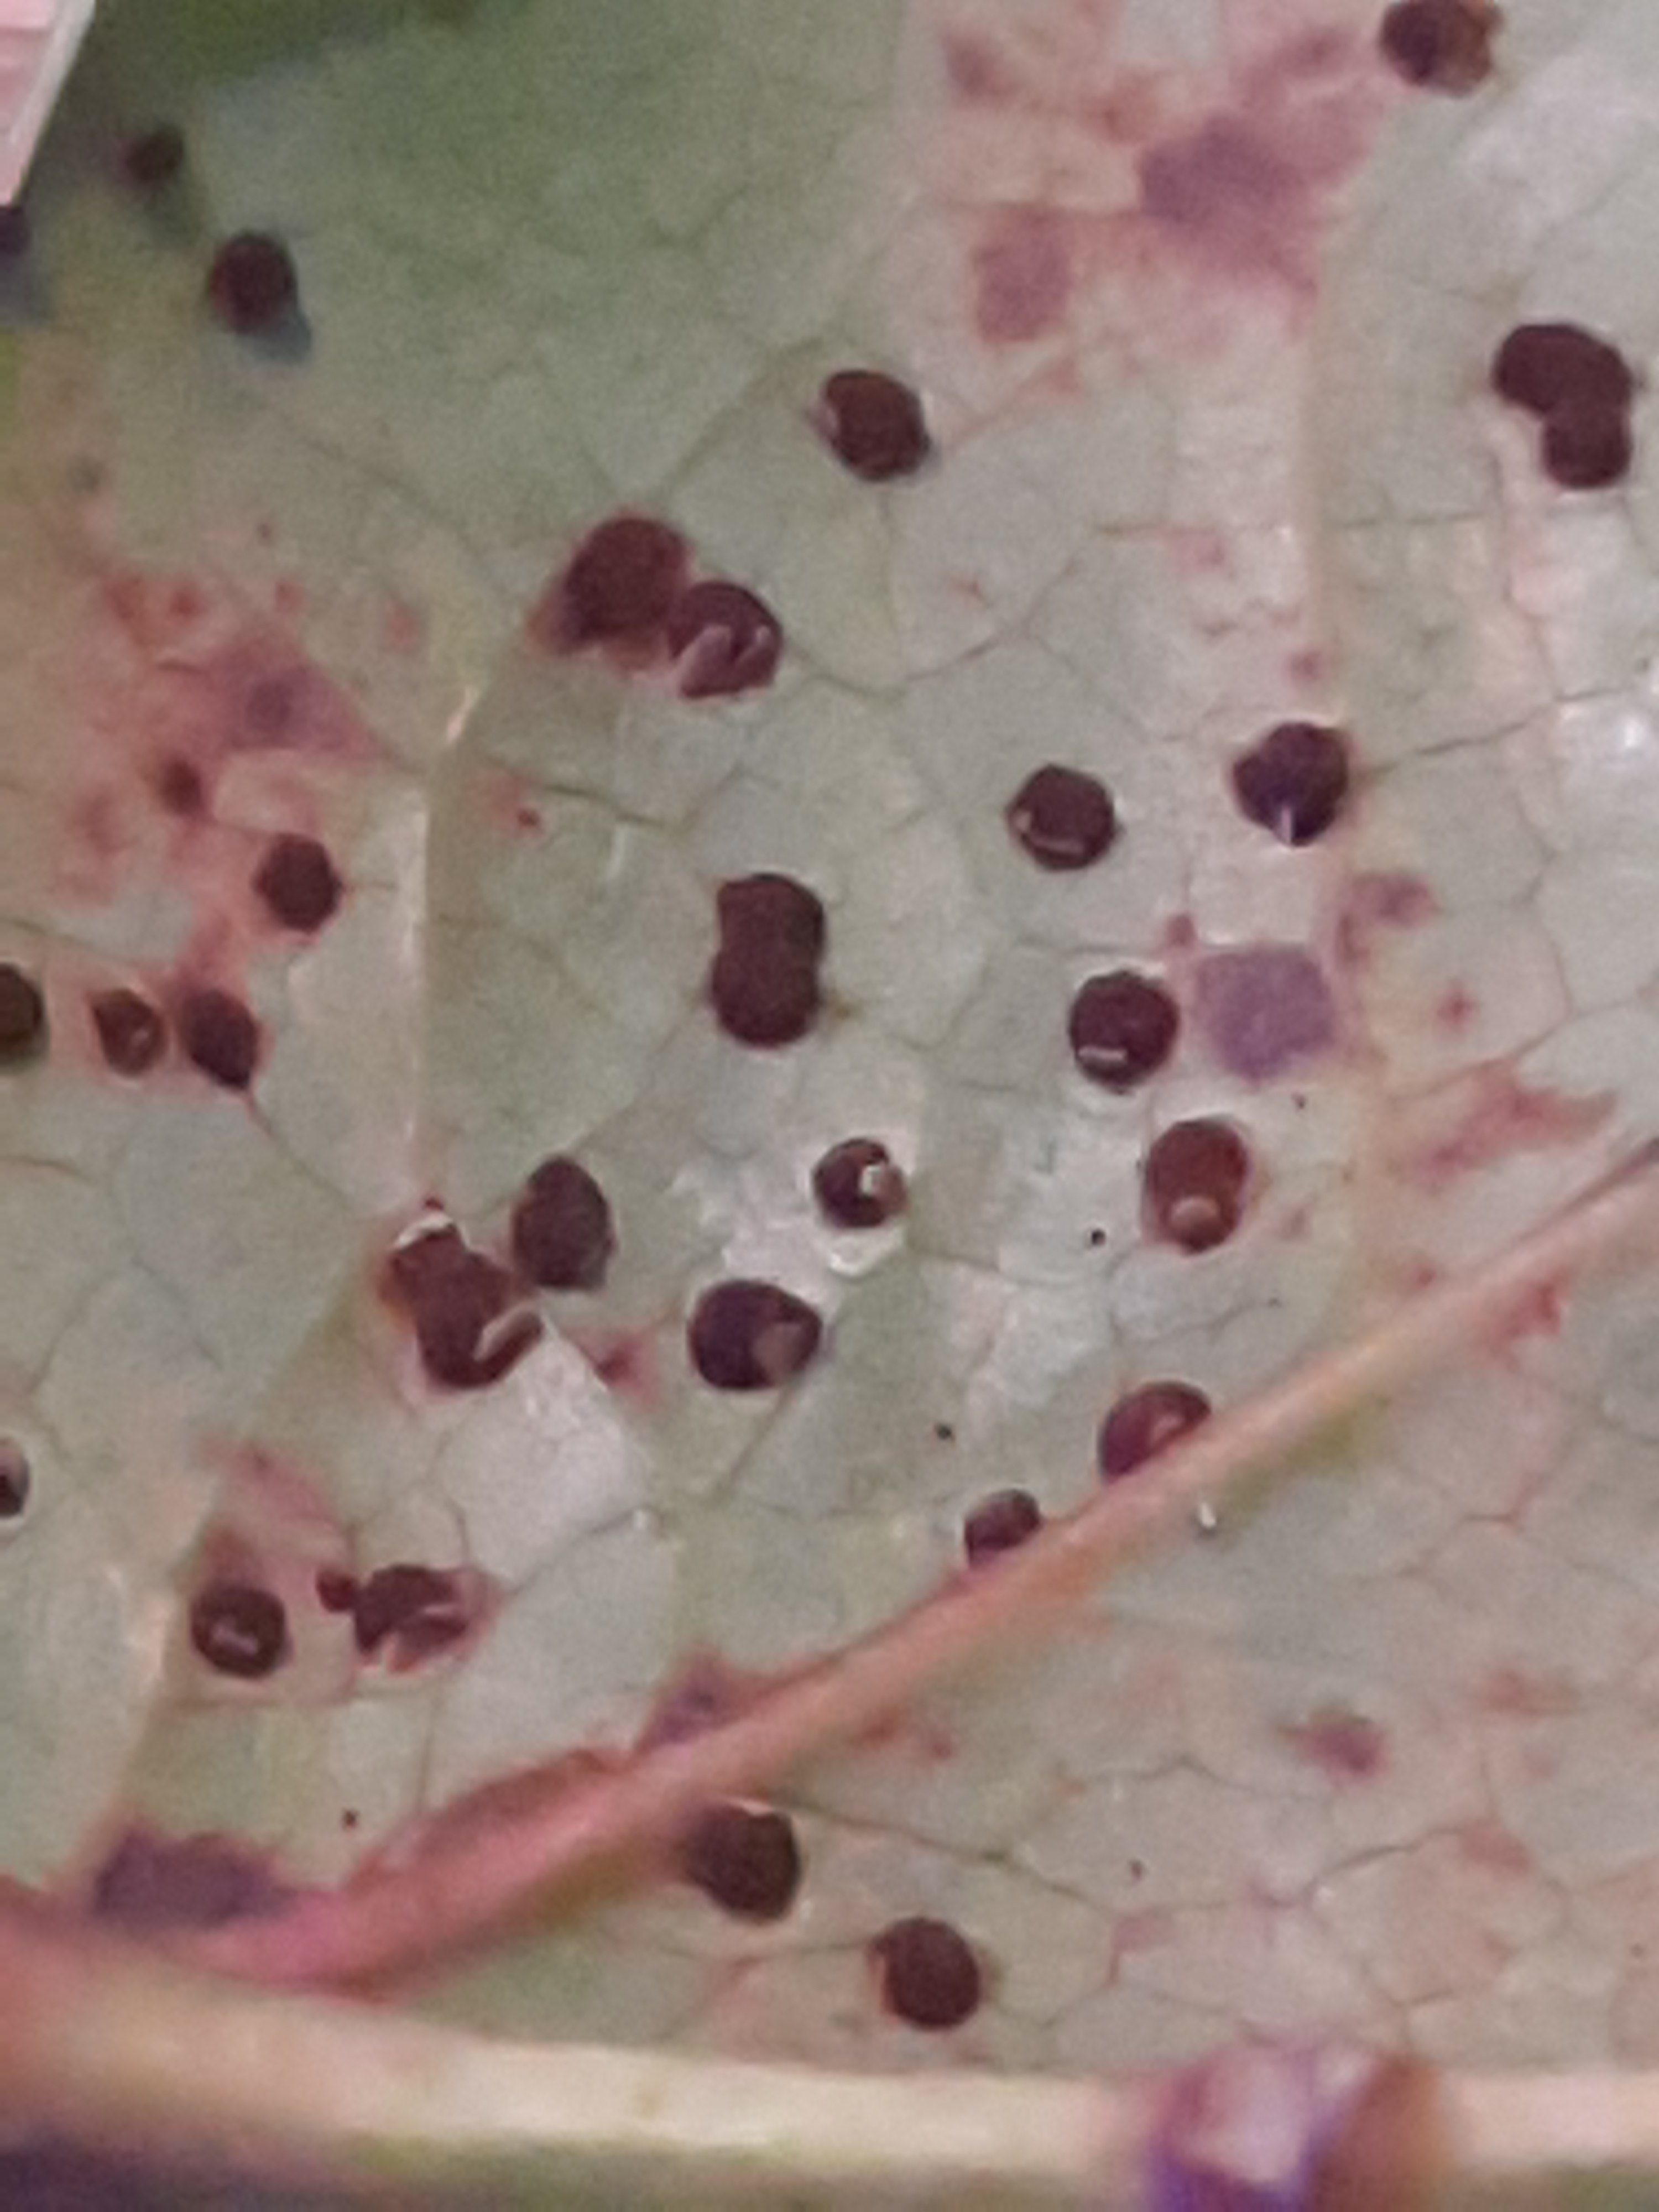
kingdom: Fungi
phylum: Basidiomycota
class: Pucciniomycetes
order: Pucciniales
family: Pucciniaceae
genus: Cumminsiella
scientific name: Cumminsiella
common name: mahonierust
